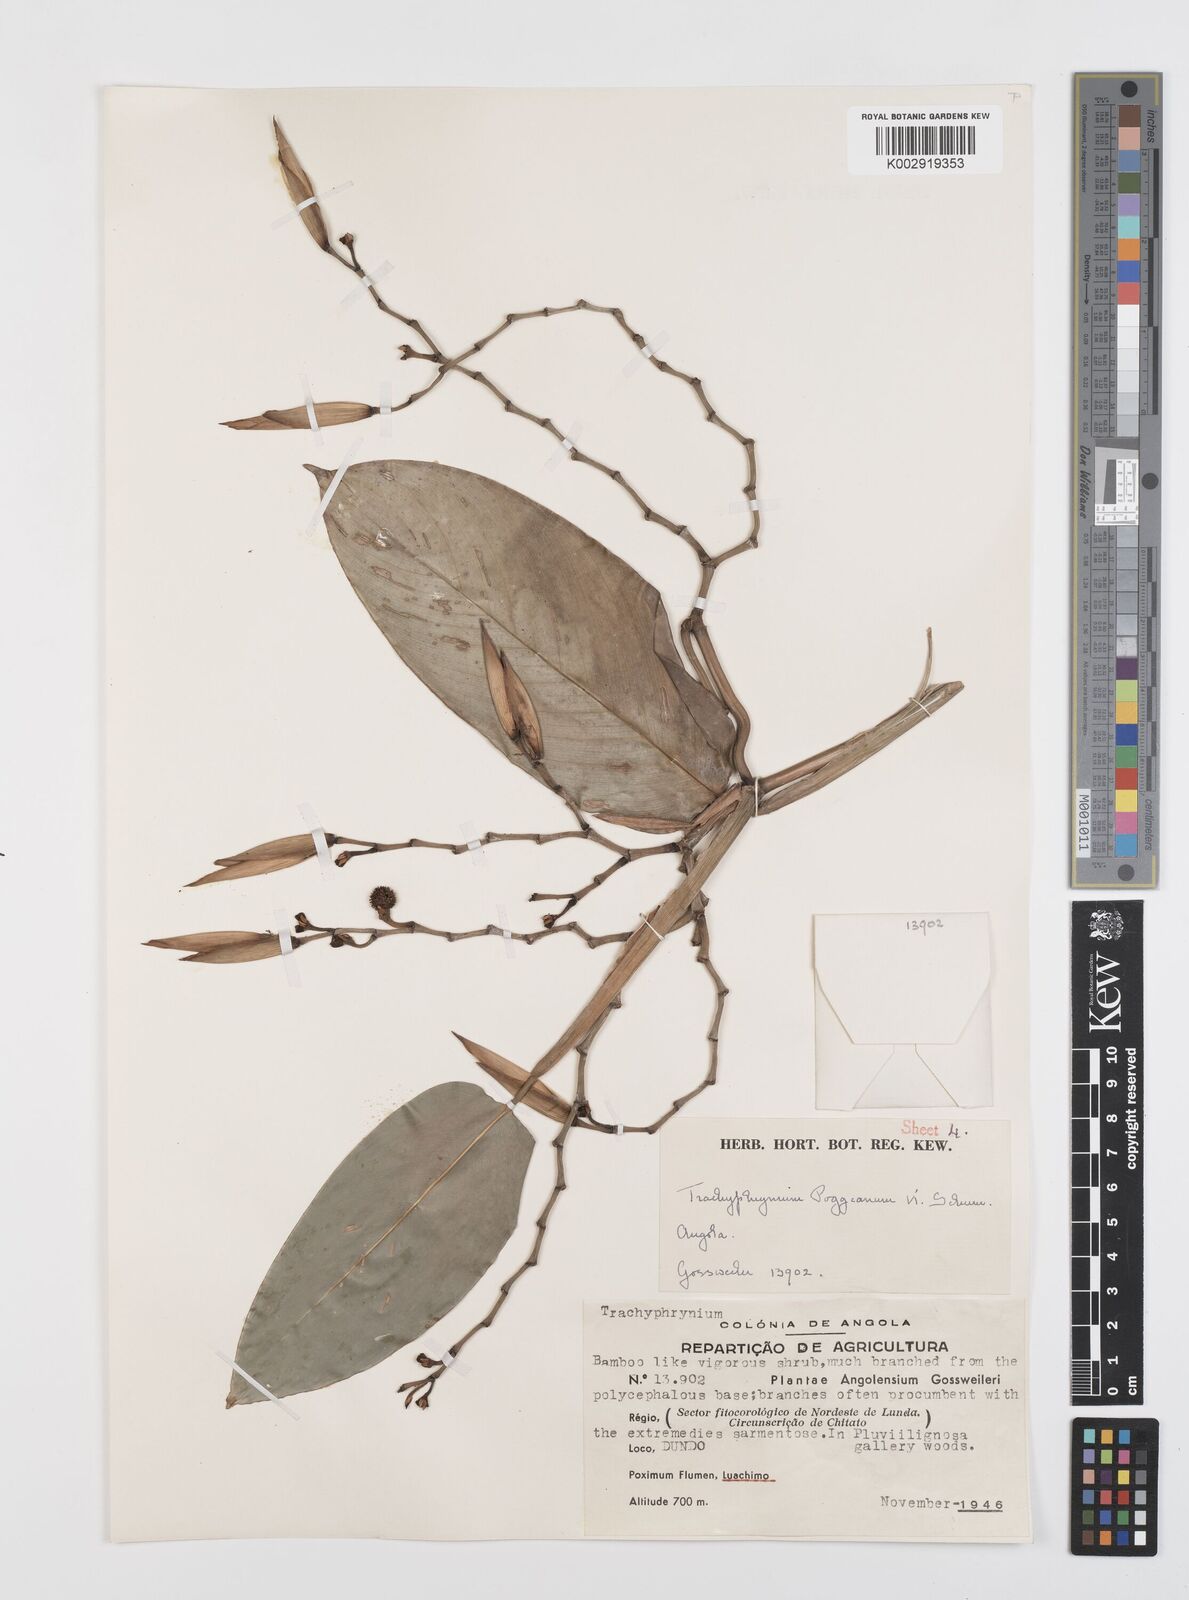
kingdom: Plantae
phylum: Tracheophyta
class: Liliopsida
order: Zingiberales
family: Marantaceae
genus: Hypselodelphys
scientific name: Hypselodelphys scandens
